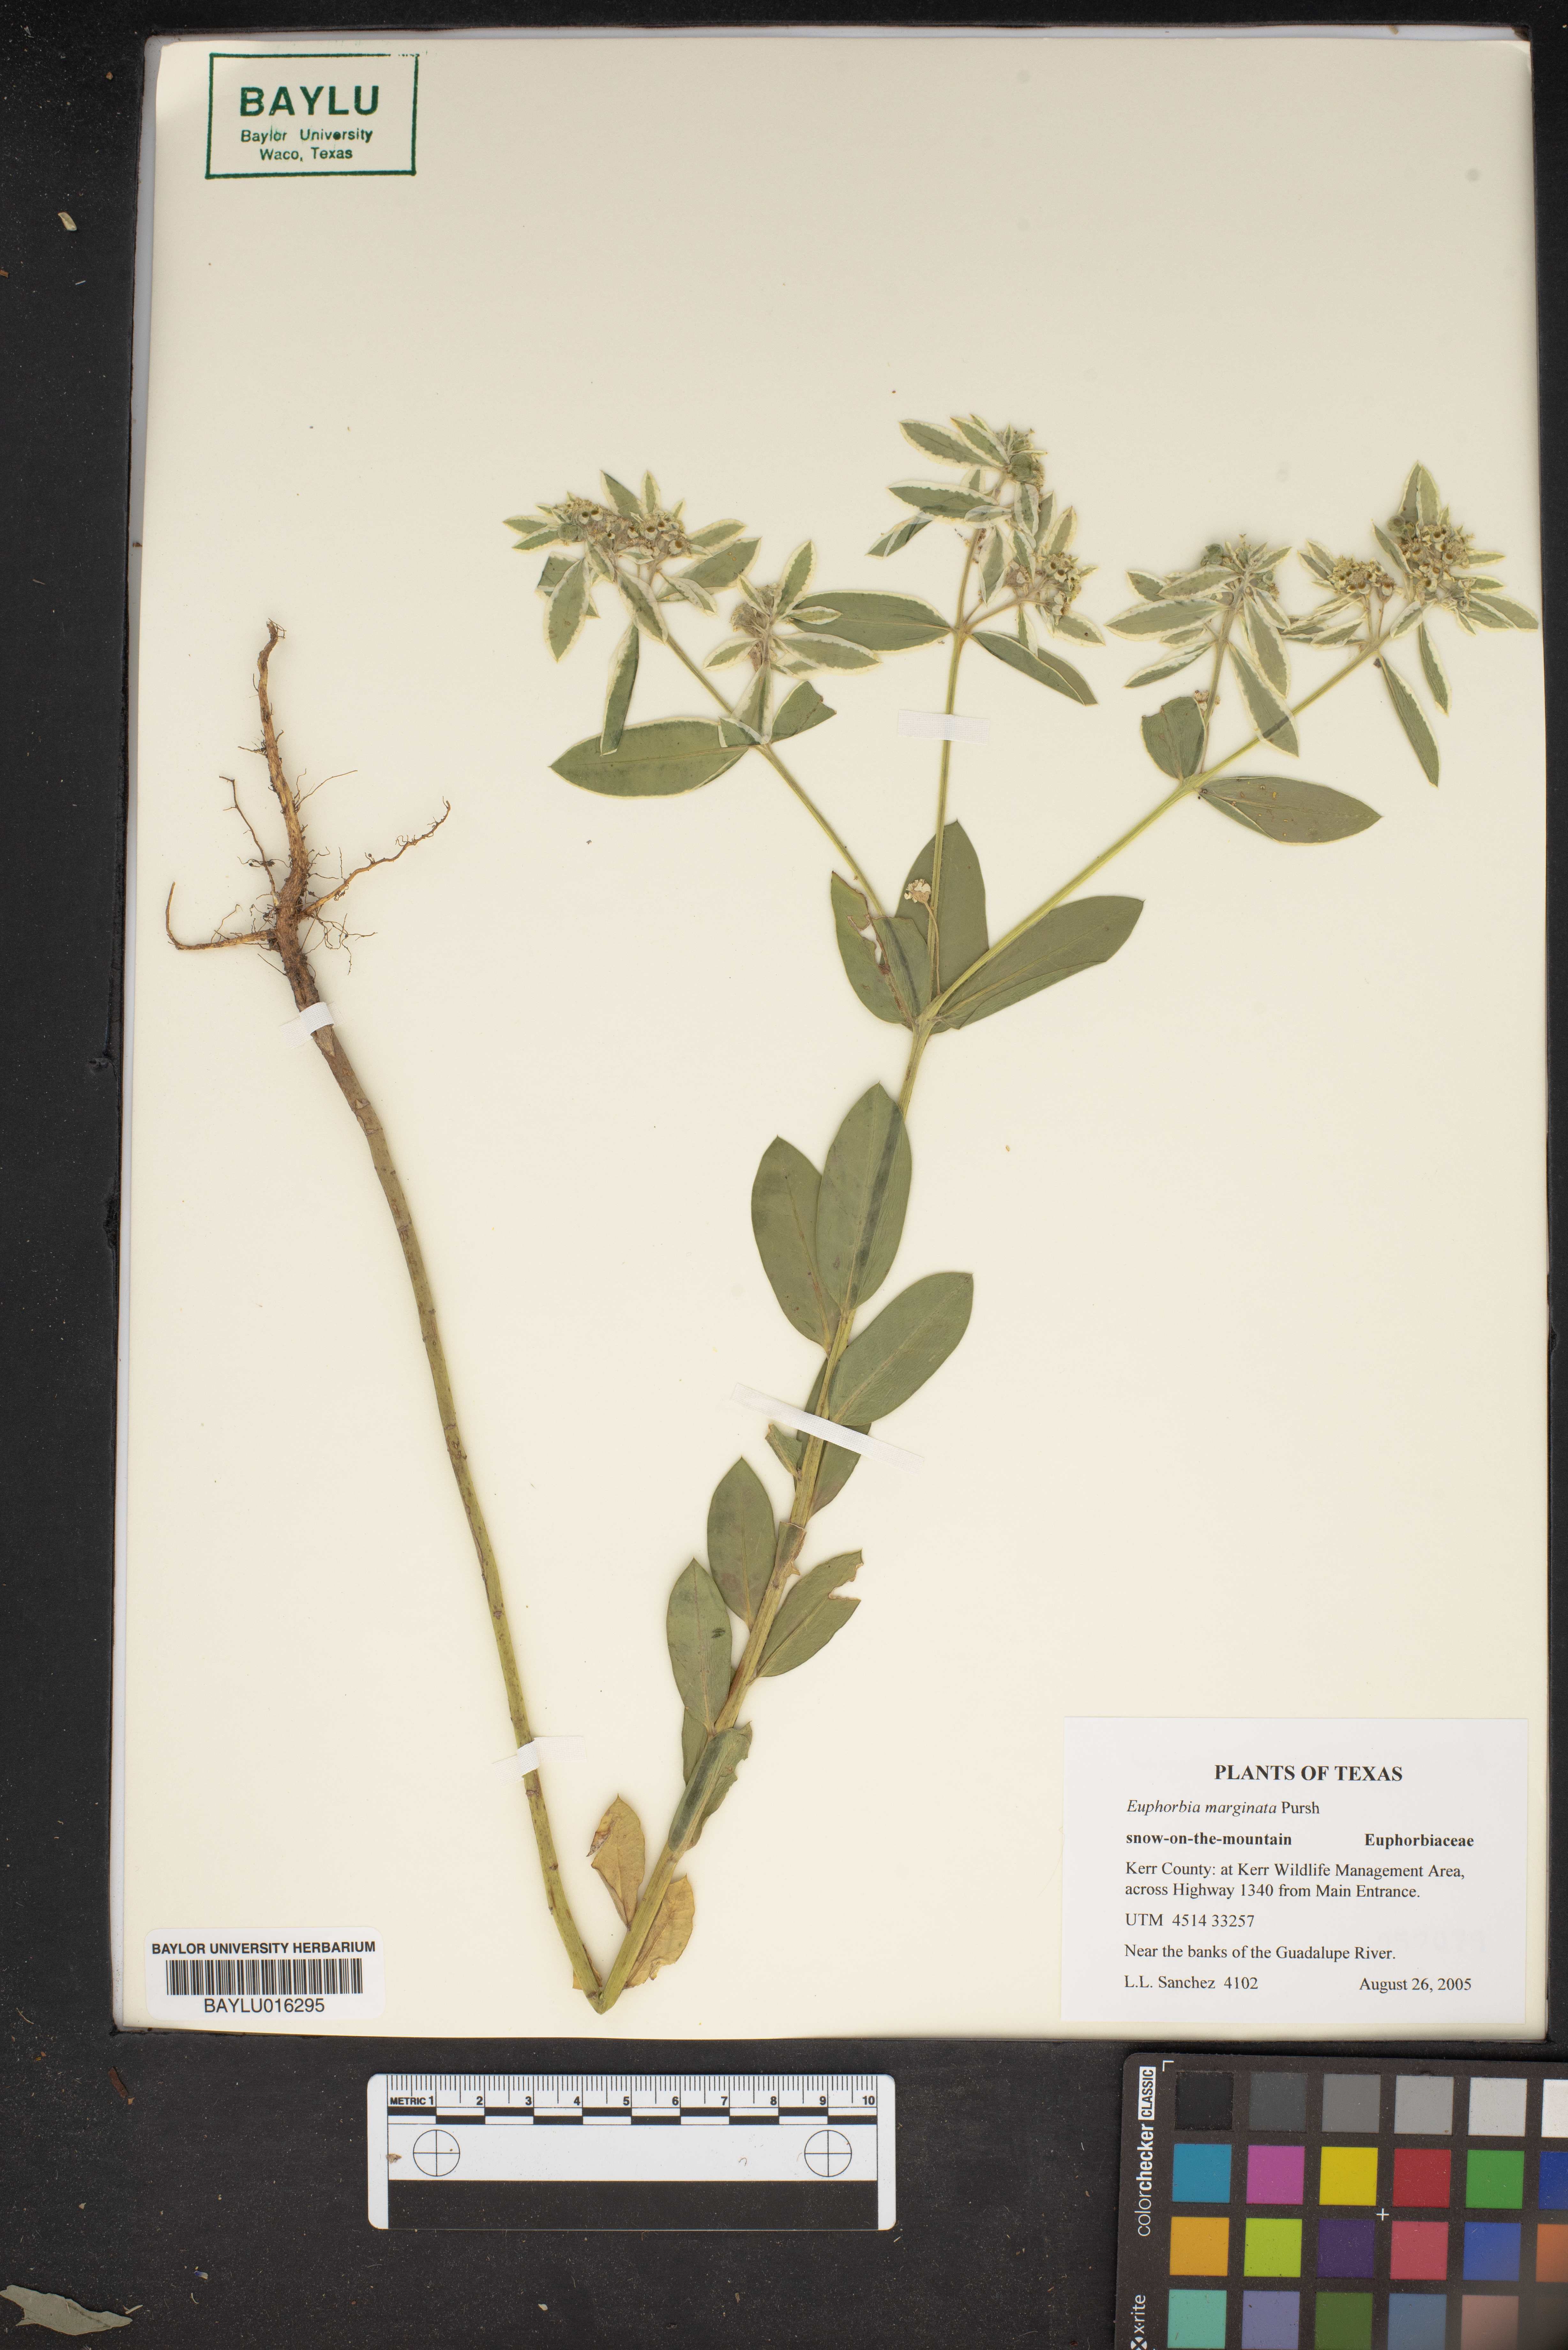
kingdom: Plantae
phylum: Tracheophyta
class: Magnoliopsida
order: Malpighiales
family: Euphorbiaceae
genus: Euphorbia
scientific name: Euphorbia marginata
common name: Ghostweed
